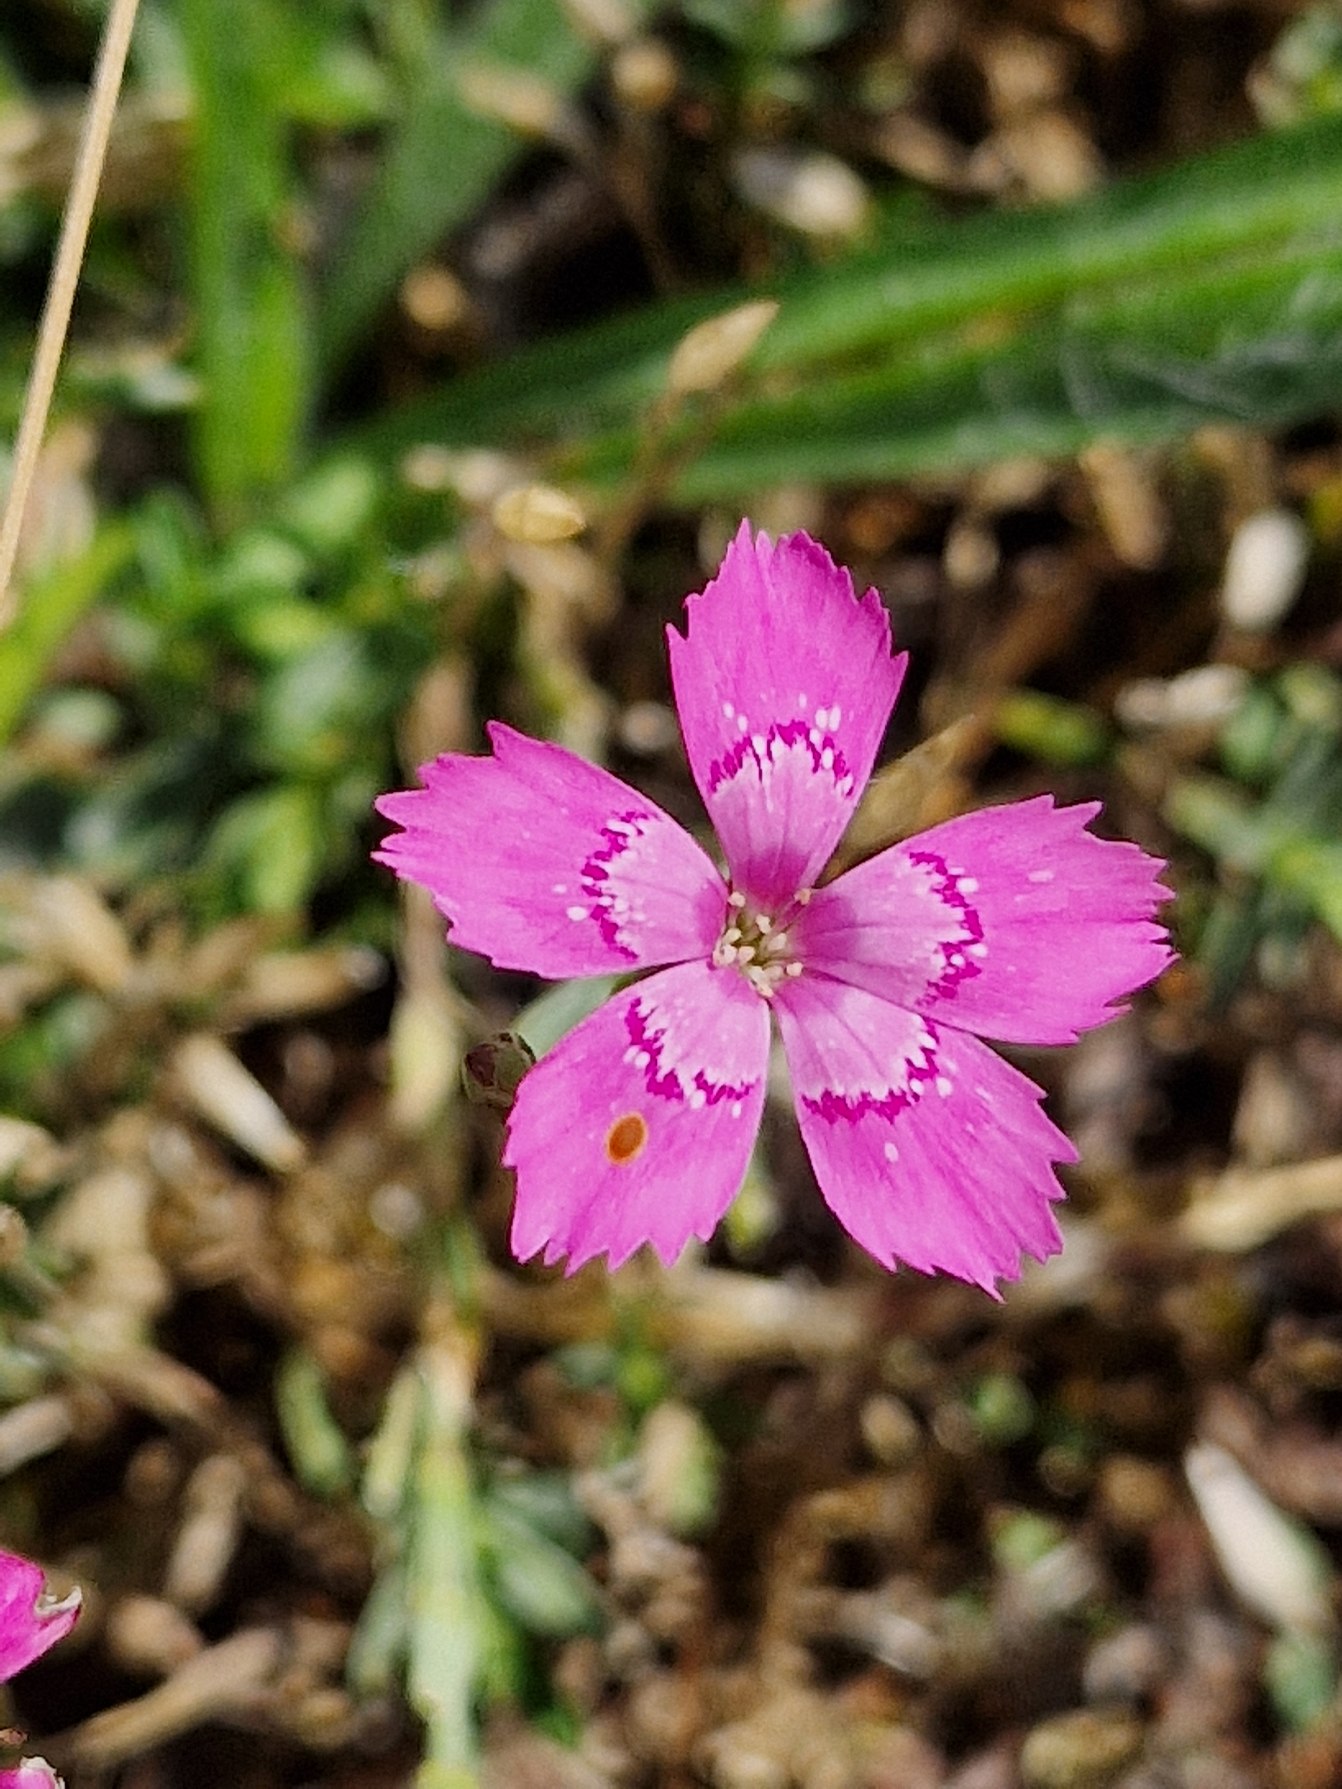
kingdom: Plantae
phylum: Tracheophyta
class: Magnoliopsida
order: Caryophyllales
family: Caryophyllaceae
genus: Dianthus
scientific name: Dianthus deltoides
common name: Bakke-nellike
